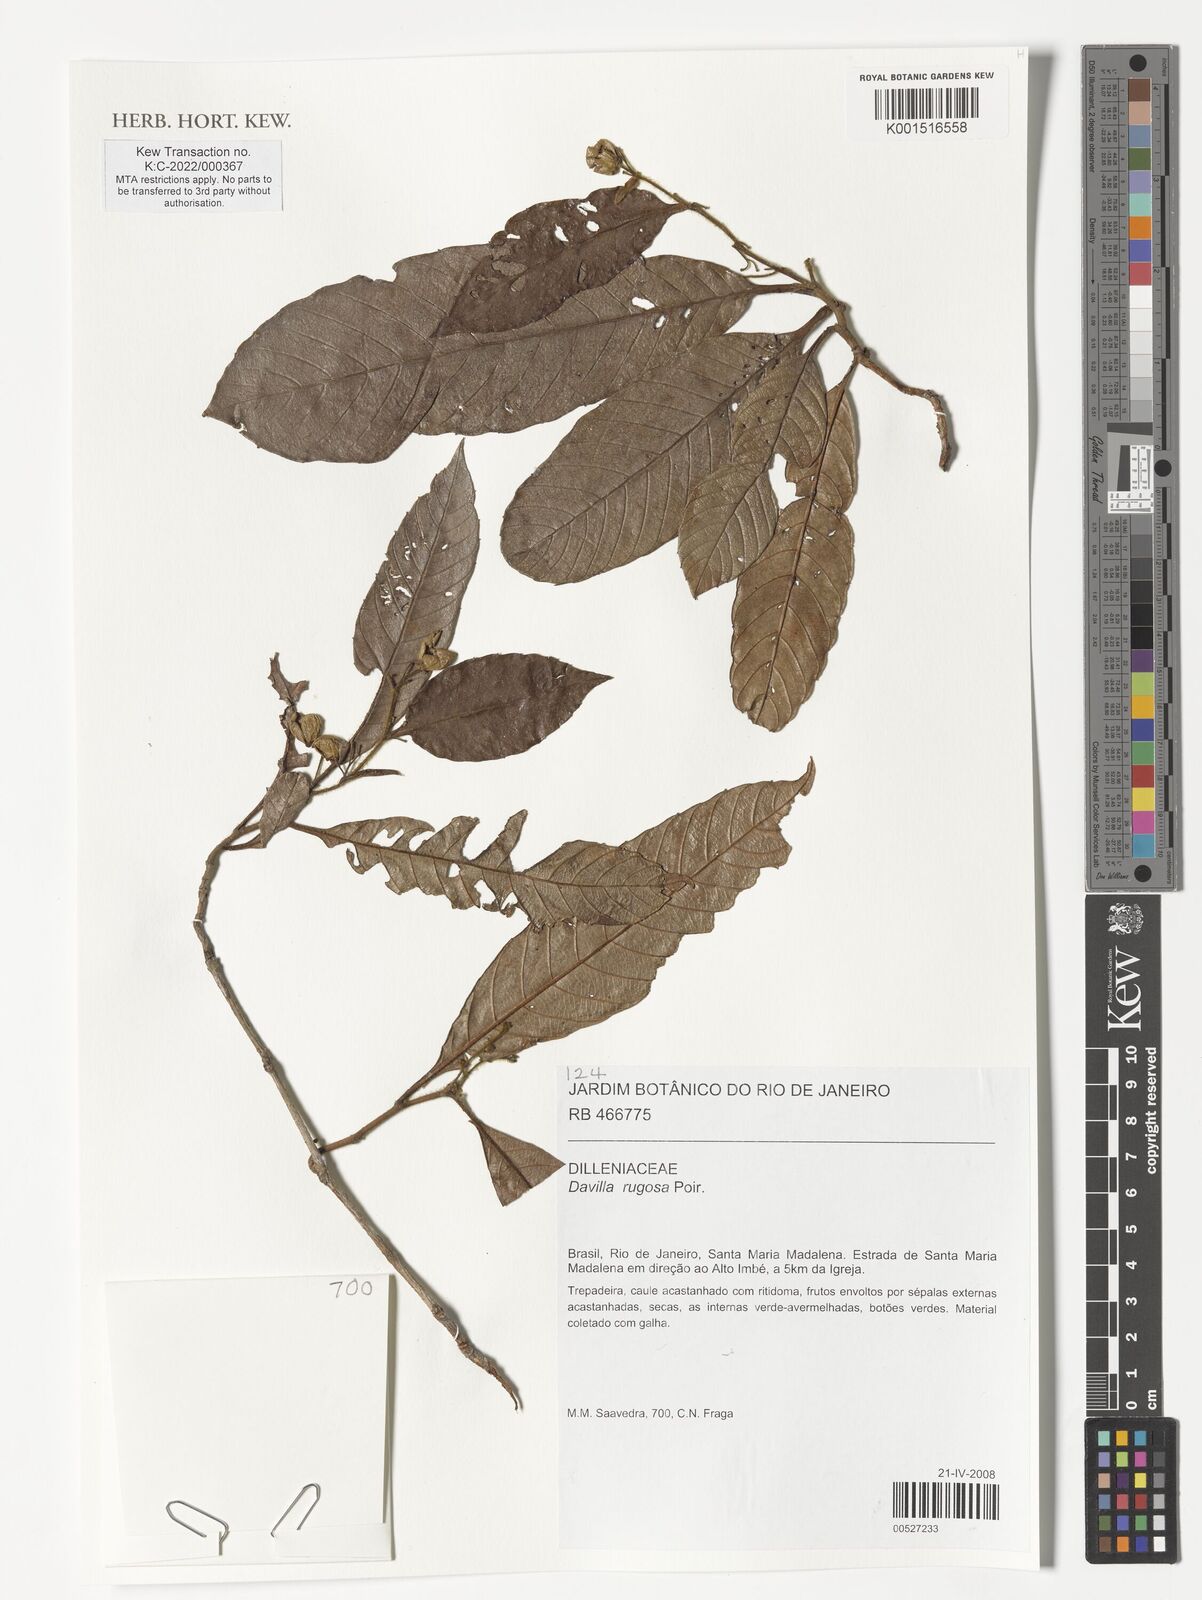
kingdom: Plantae
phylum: Tracheophyta
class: Magnoliopsida
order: Dilleniales
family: Dilleniaceae
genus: Davilla
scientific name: Davilla rugosa
